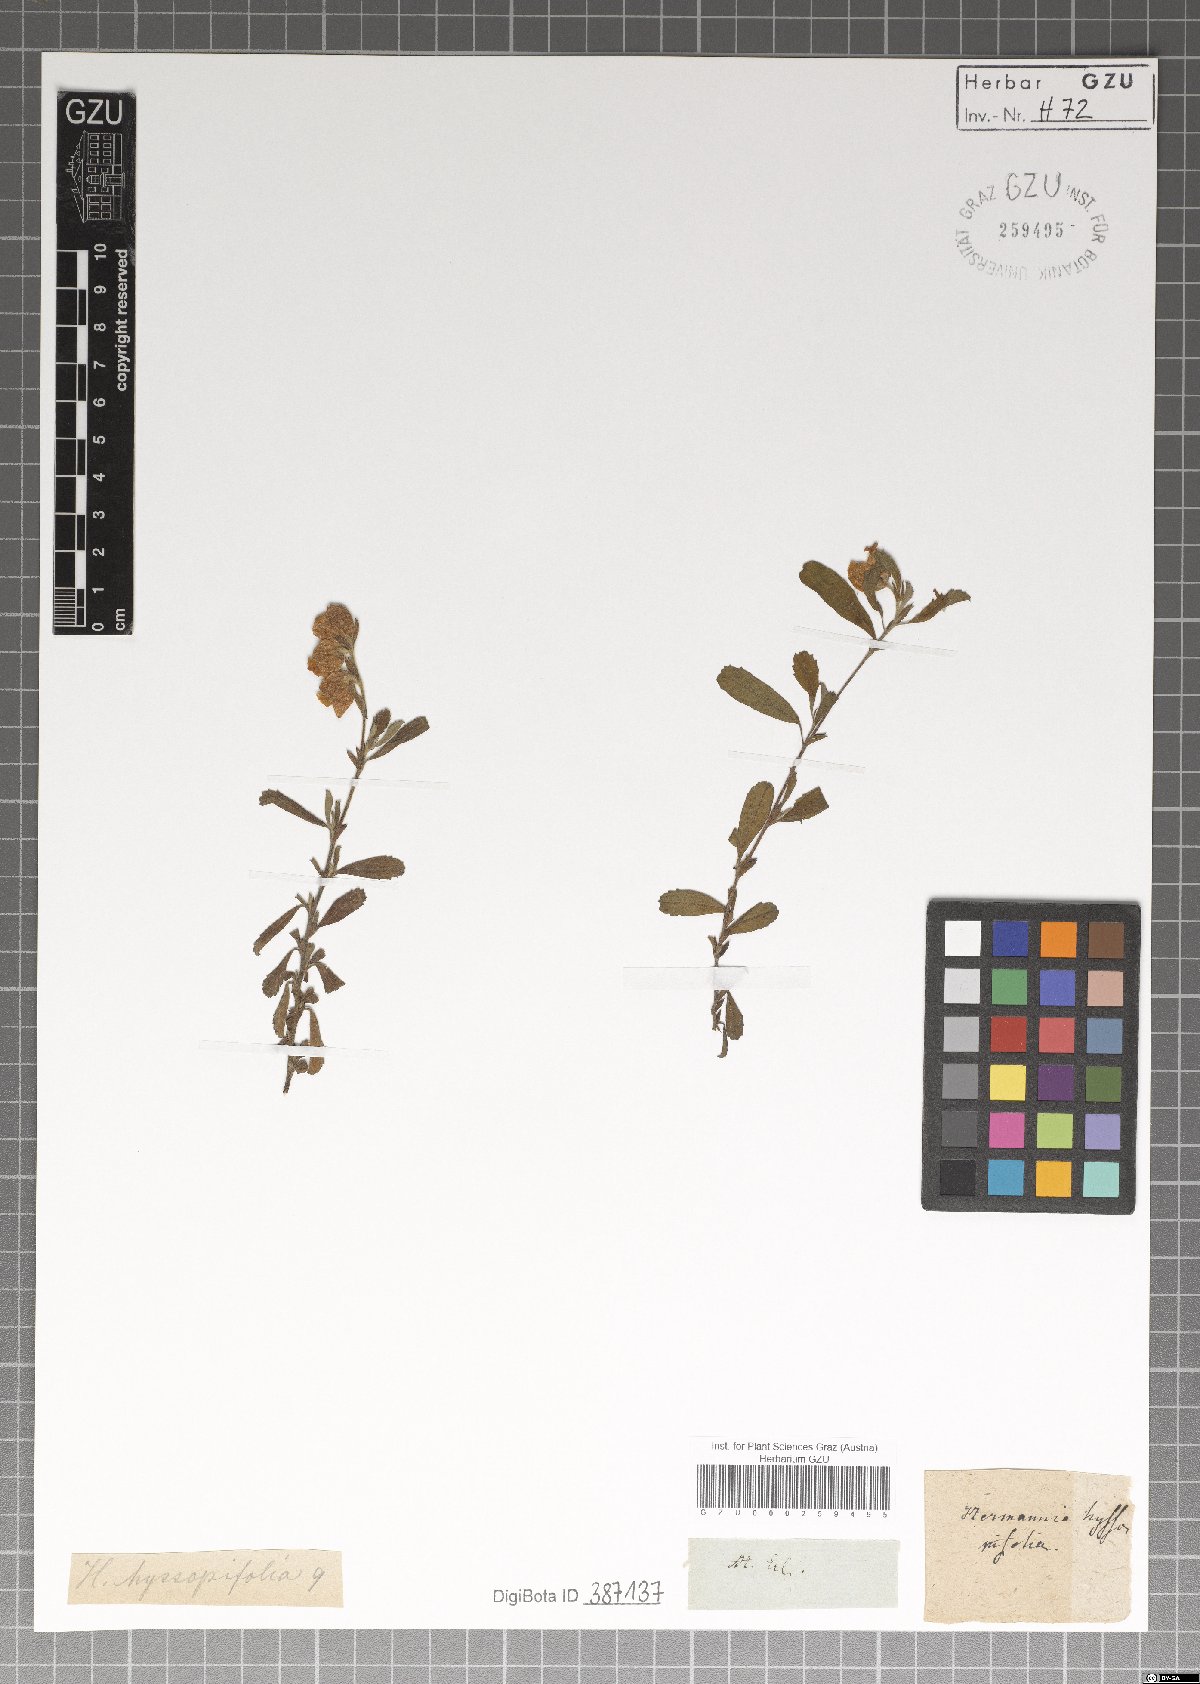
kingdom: Plantae
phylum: Tracheophyta
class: Magnoliopsida
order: Malvales
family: Malvaceae
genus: Hermannia
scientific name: Hermannia hyssopifolia
